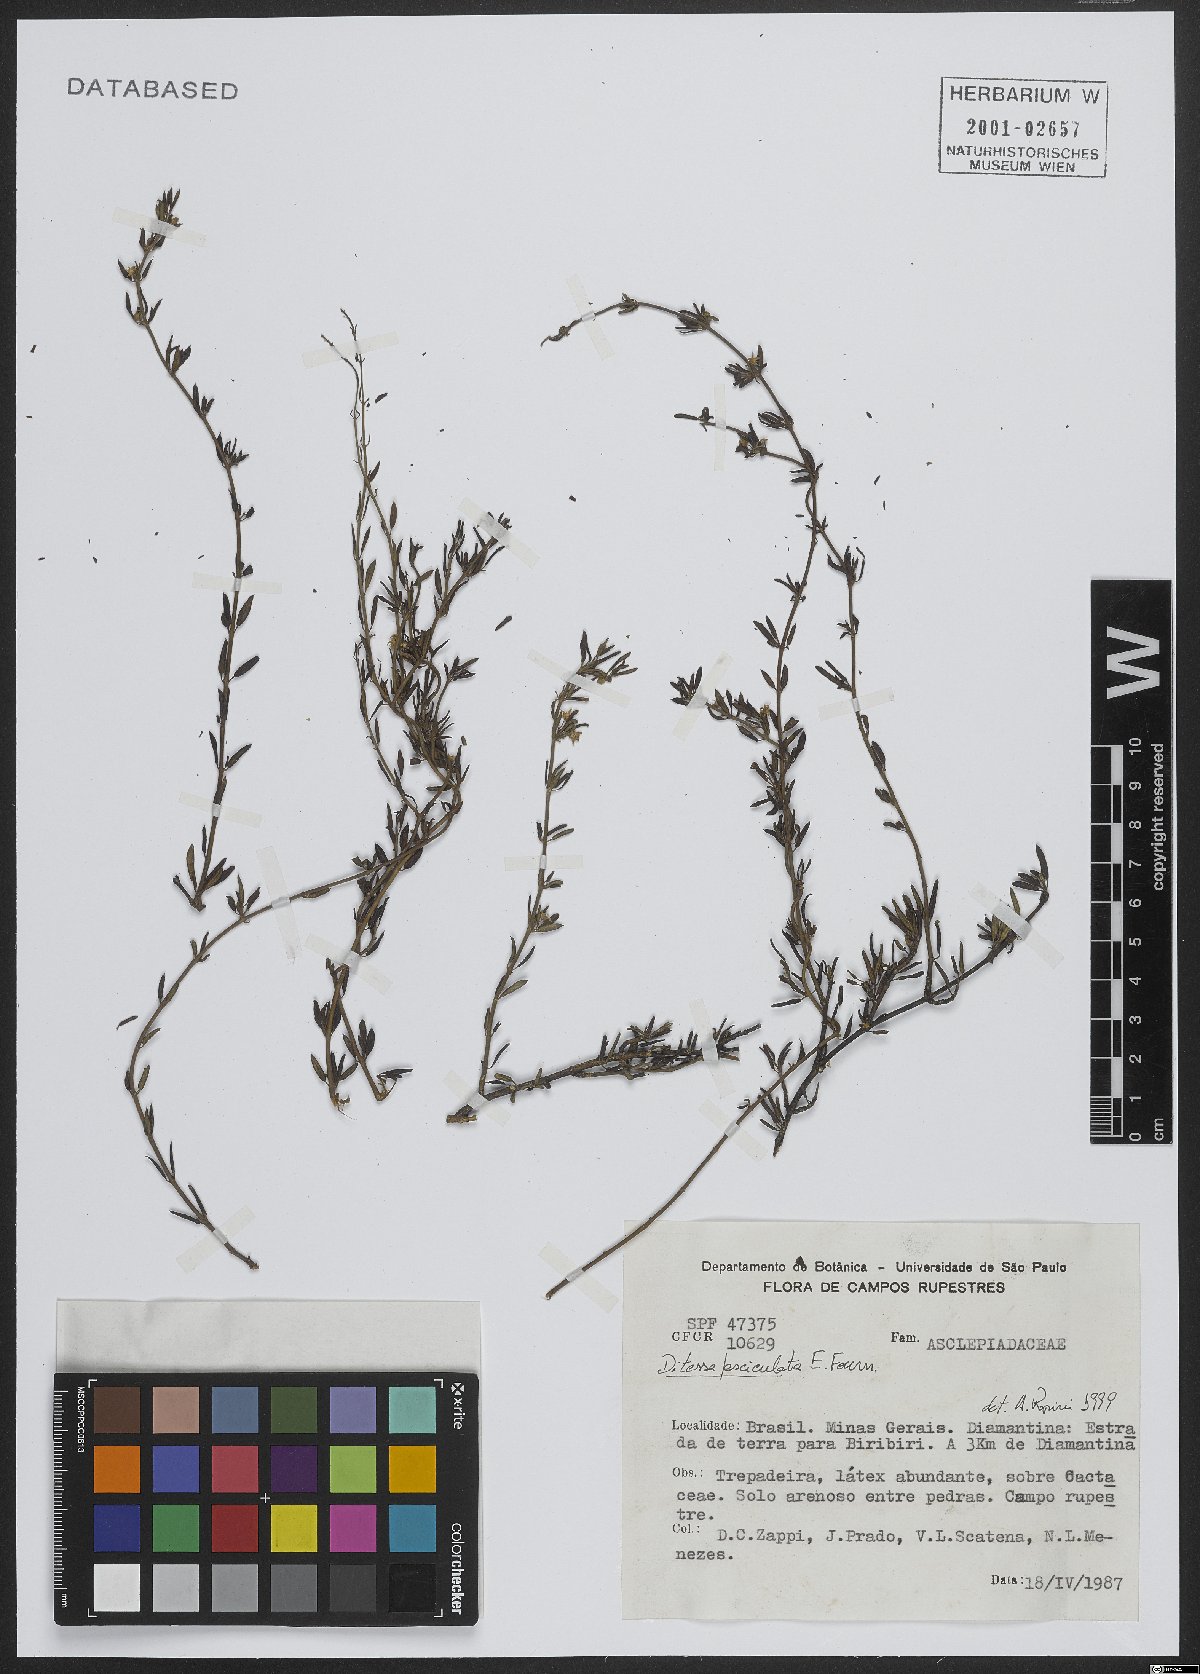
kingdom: Plantae
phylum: Tracheophyta
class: Magnoliopsida
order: Gentianales
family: Apocynaceae
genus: Ditassa
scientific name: Ditassa fasciculata
